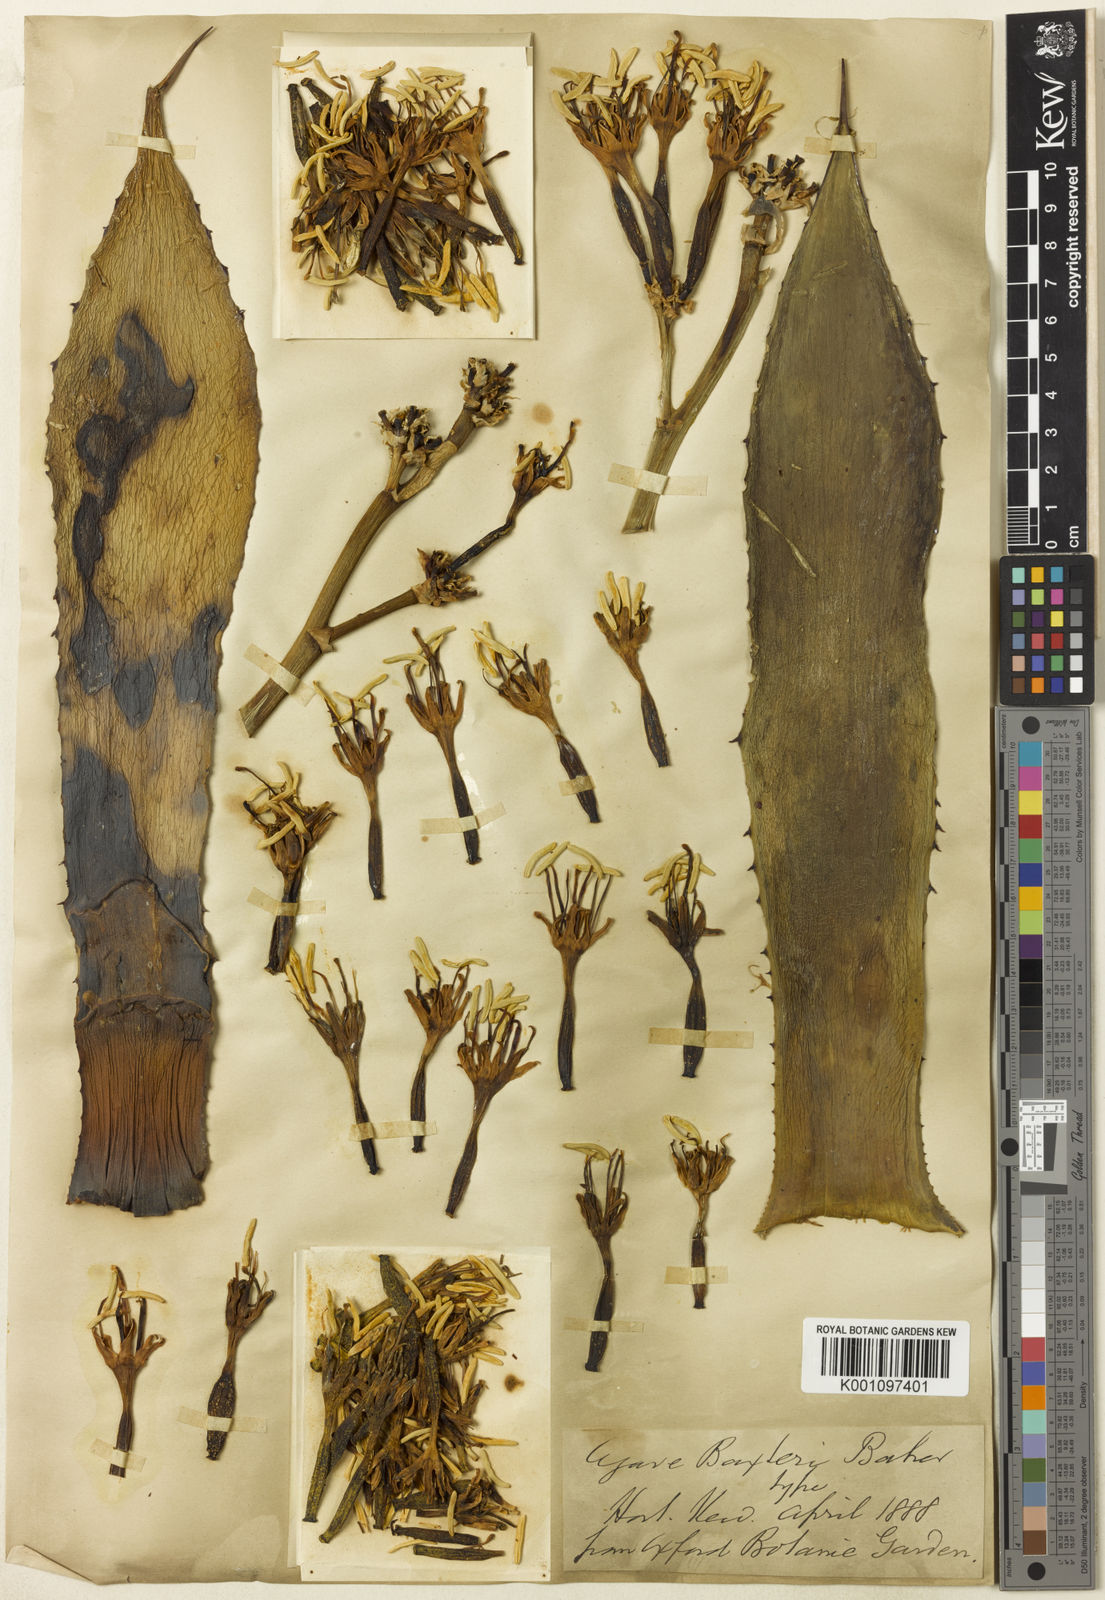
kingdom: Plantae
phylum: Tracheophyta
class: Liliopsida
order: Asparagales
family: Asparagaceae
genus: Agave
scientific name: Agave baxteri
